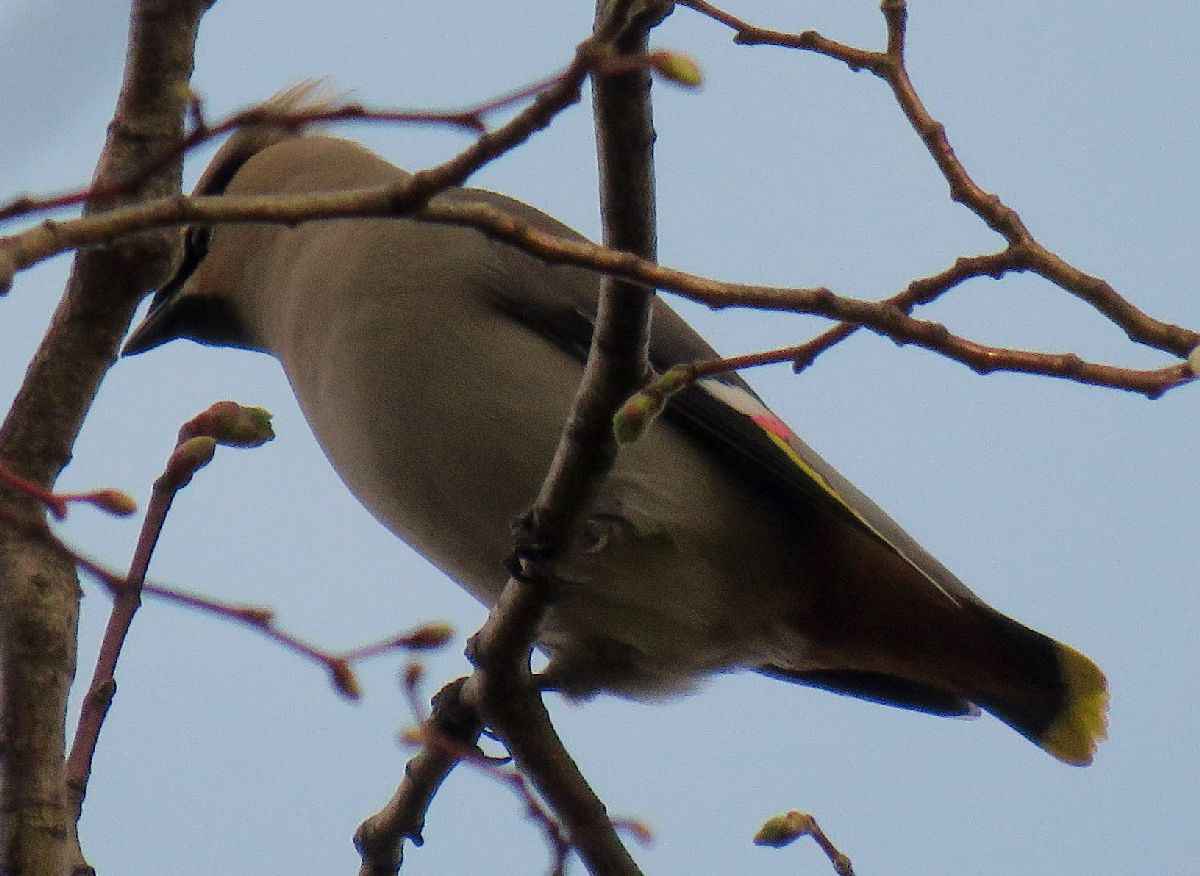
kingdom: Animalia
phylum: Chordata
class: Aves
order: Passeriformes
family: Bombycillidae
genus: Bombycilla
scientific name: Bombycilla garrulus
